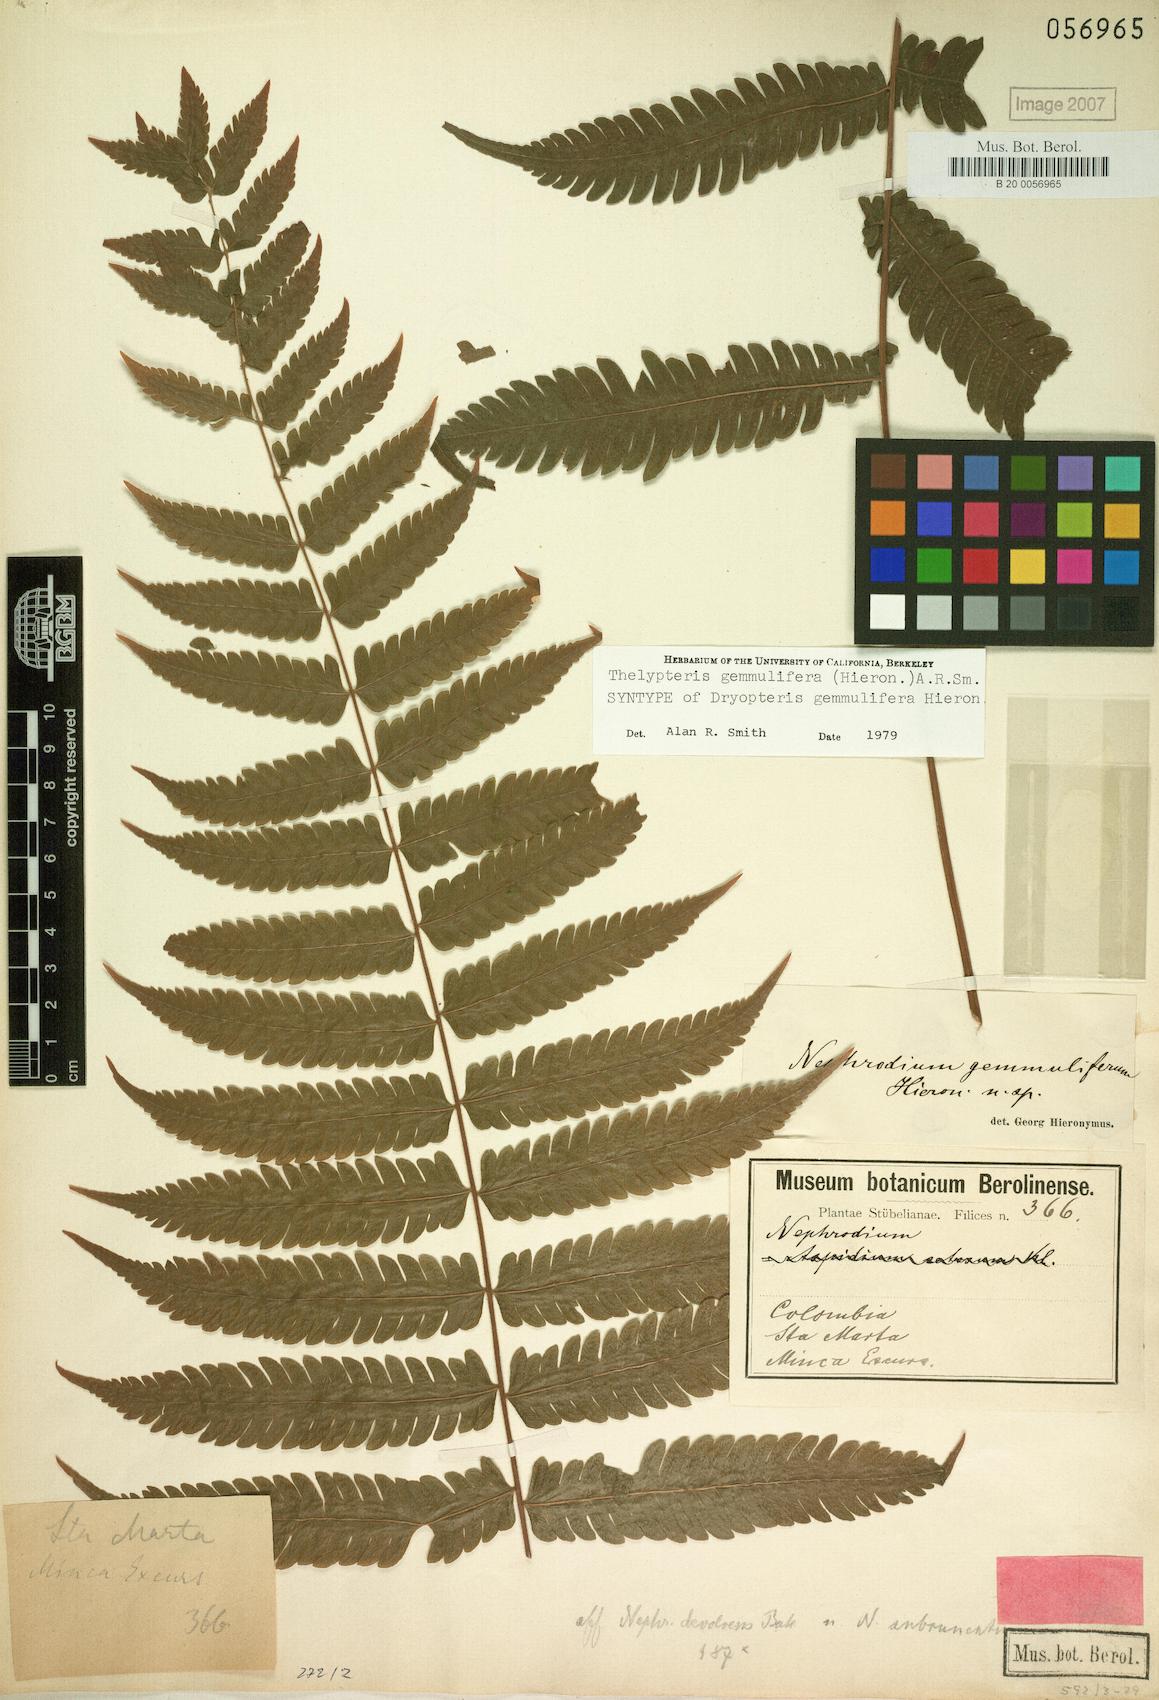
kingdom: Plantae
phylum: Tracheophyta
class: Polypodiopsida
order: Polypodiales
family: Thelypteridaceae
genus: Goniopteris
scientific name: Goniopteris gemmulifera
